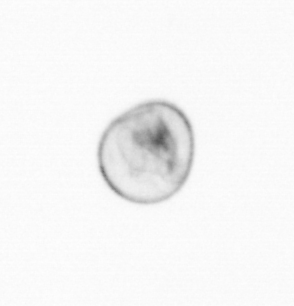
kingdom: Chromista
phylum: Myzozoa
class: Dinophyceae
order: Noctilucales
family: Noctilucaceae
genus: Noctiluca
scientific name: Noctiluca scintillans
